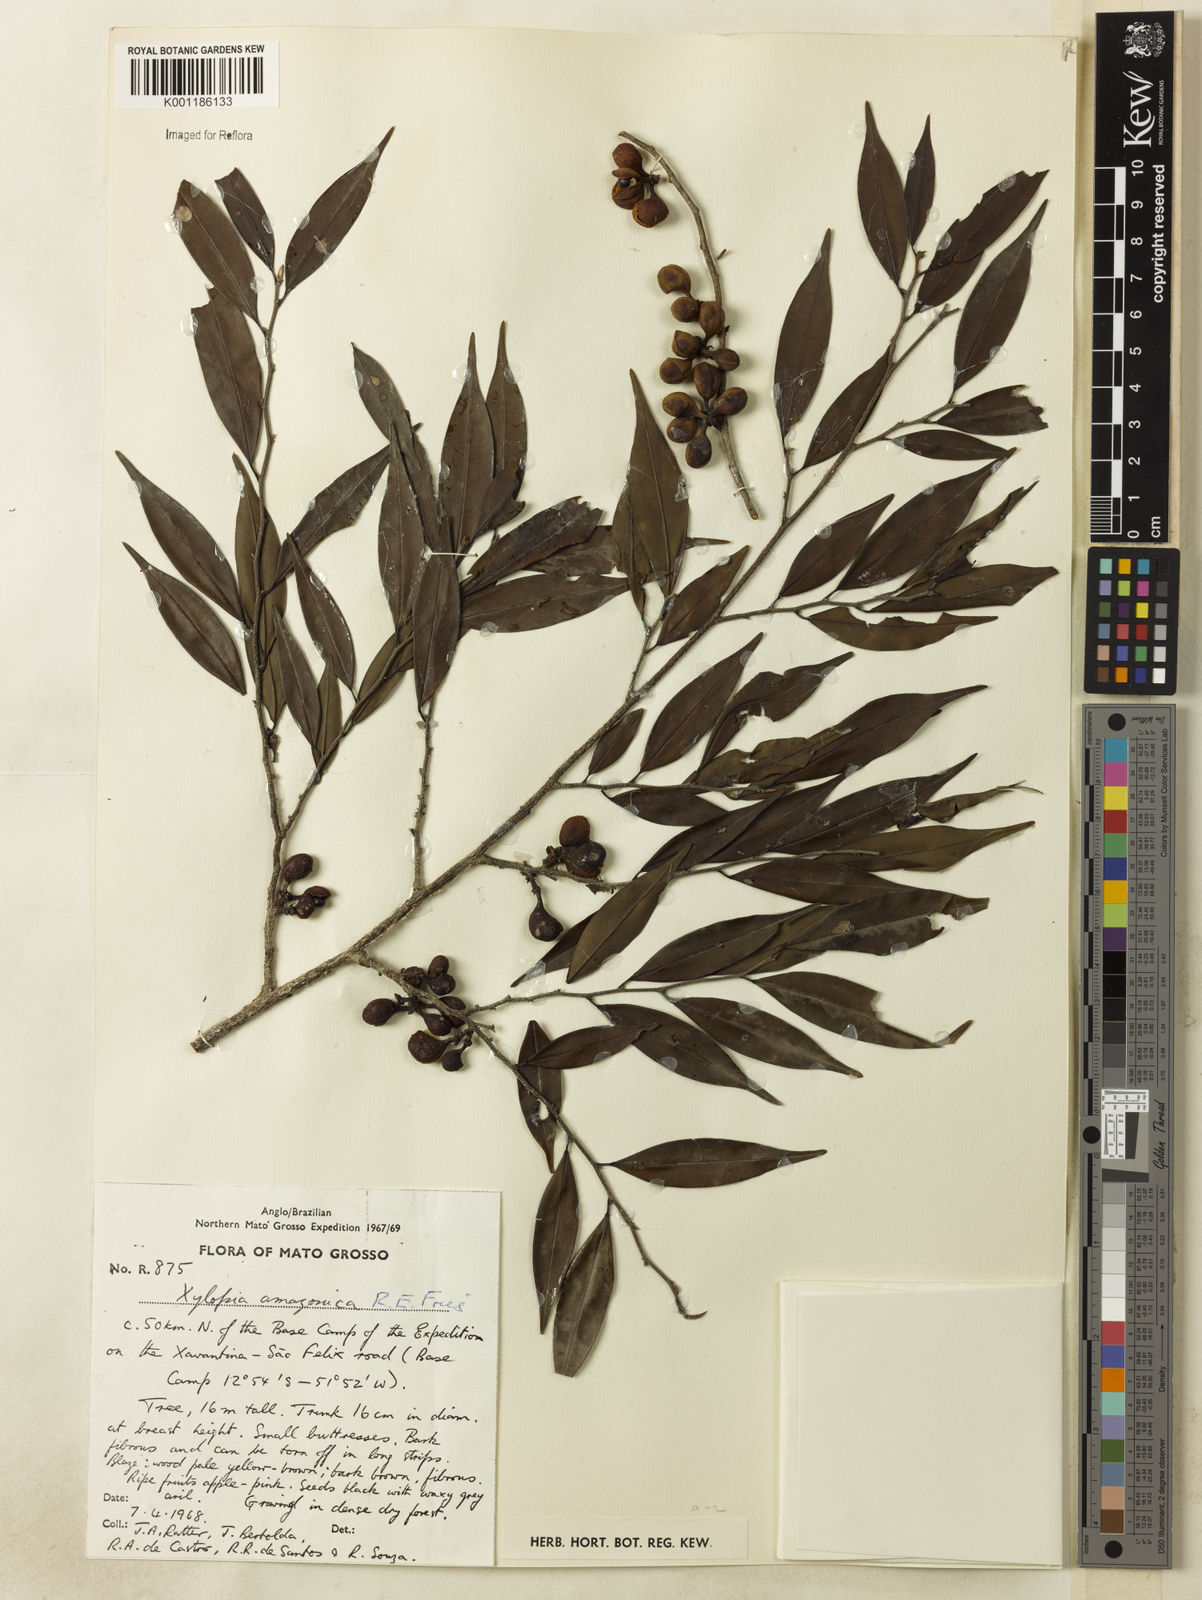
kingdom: Plantae
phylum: Tracheophyta
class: Magnoliopsida
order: Magnoliales
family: Annonaceae
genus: Xylopia
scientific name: Xylopia amazonica
